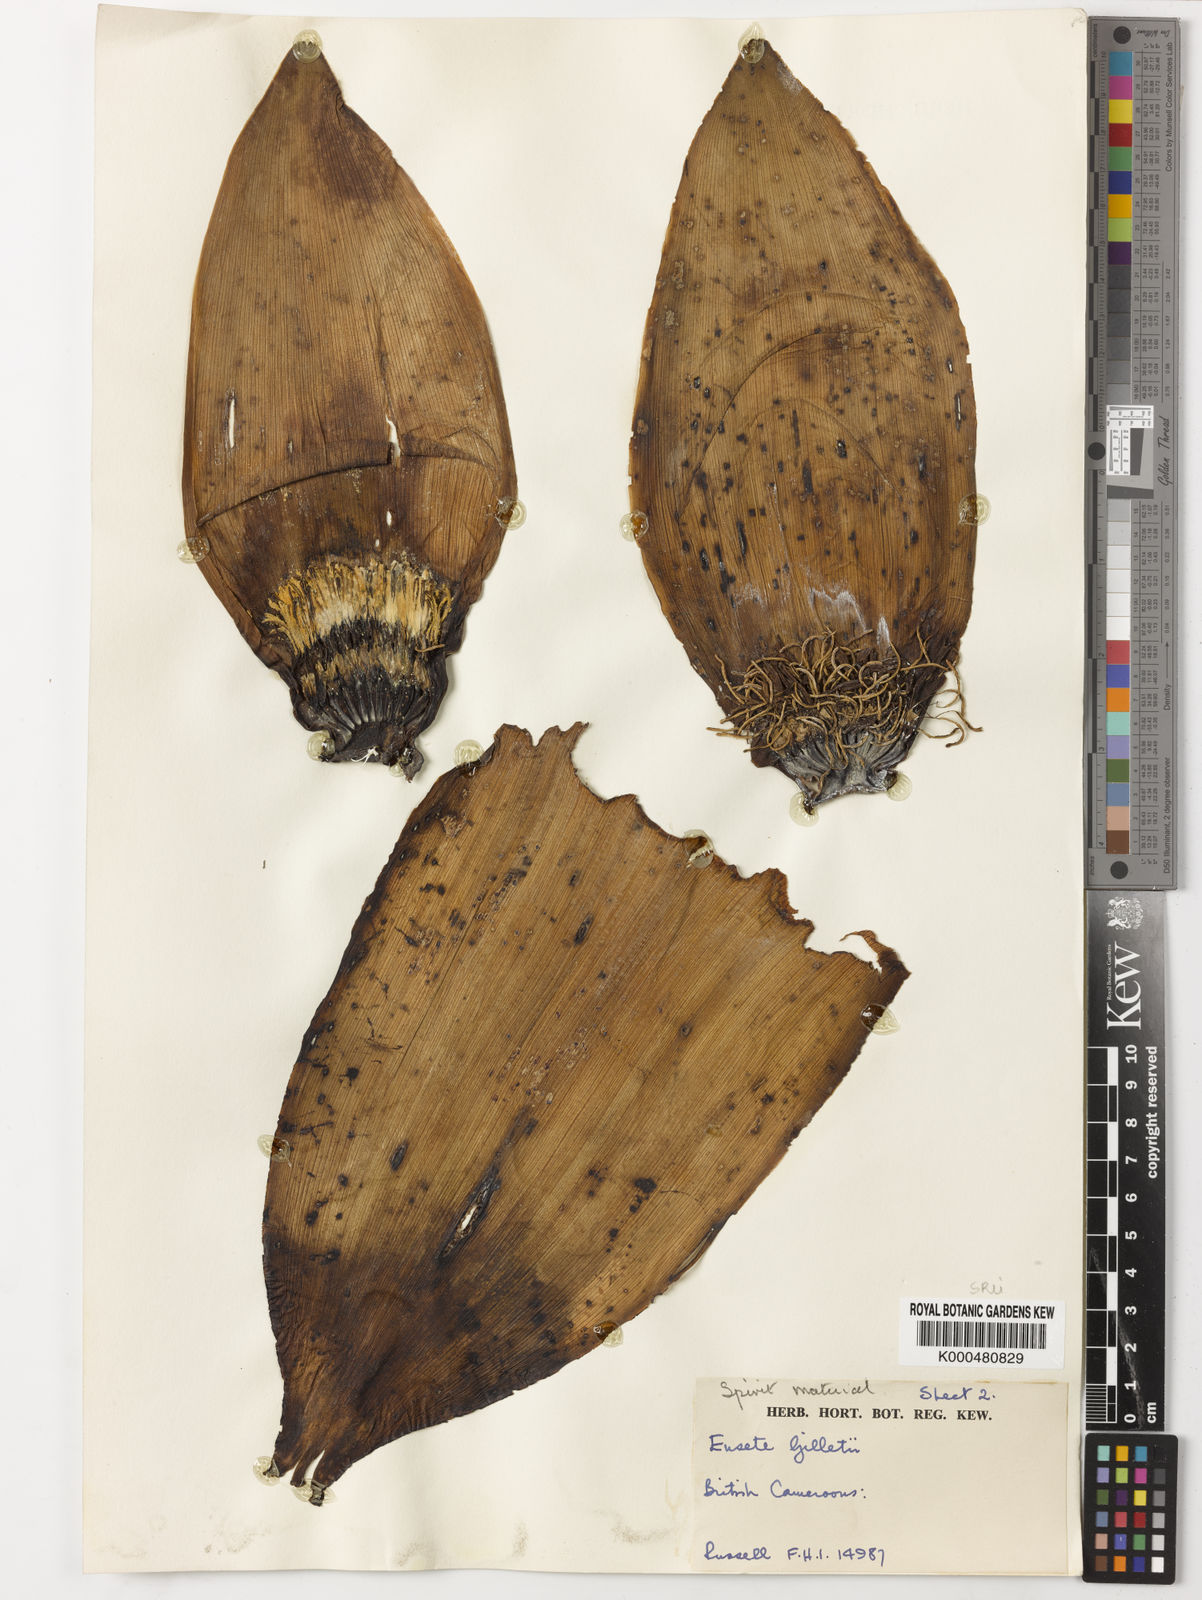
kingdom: Plantae
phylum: Tracheophyta
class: Liliopsida
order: Zingiberales
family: Musaceae
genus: Ensete
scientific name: Ensete livingstonianum
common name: Livingston's banana
